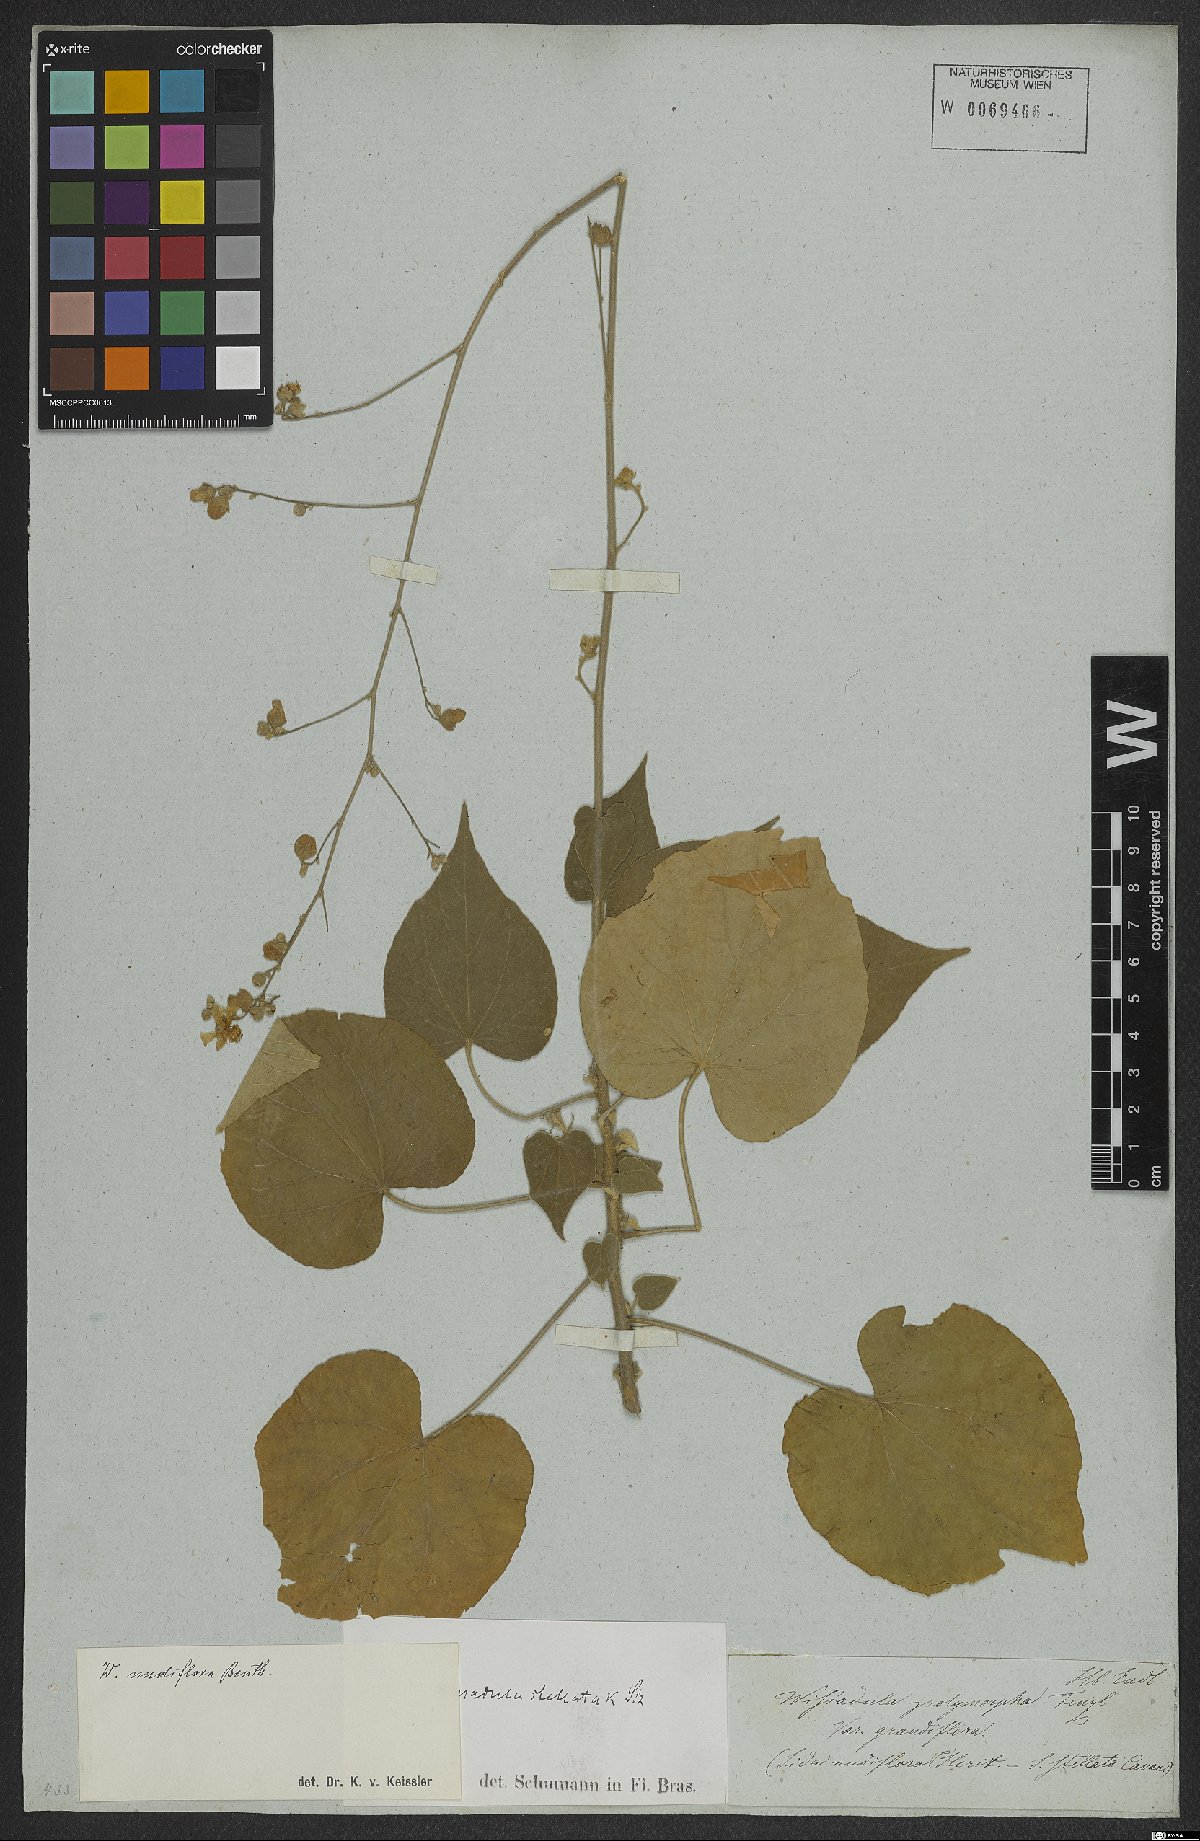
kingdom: Plantae
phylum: Tracheophyta
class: Magnoliopsida
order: Malvales
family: Malvaceae
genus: Wissadula
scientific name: Wissadula stellata
